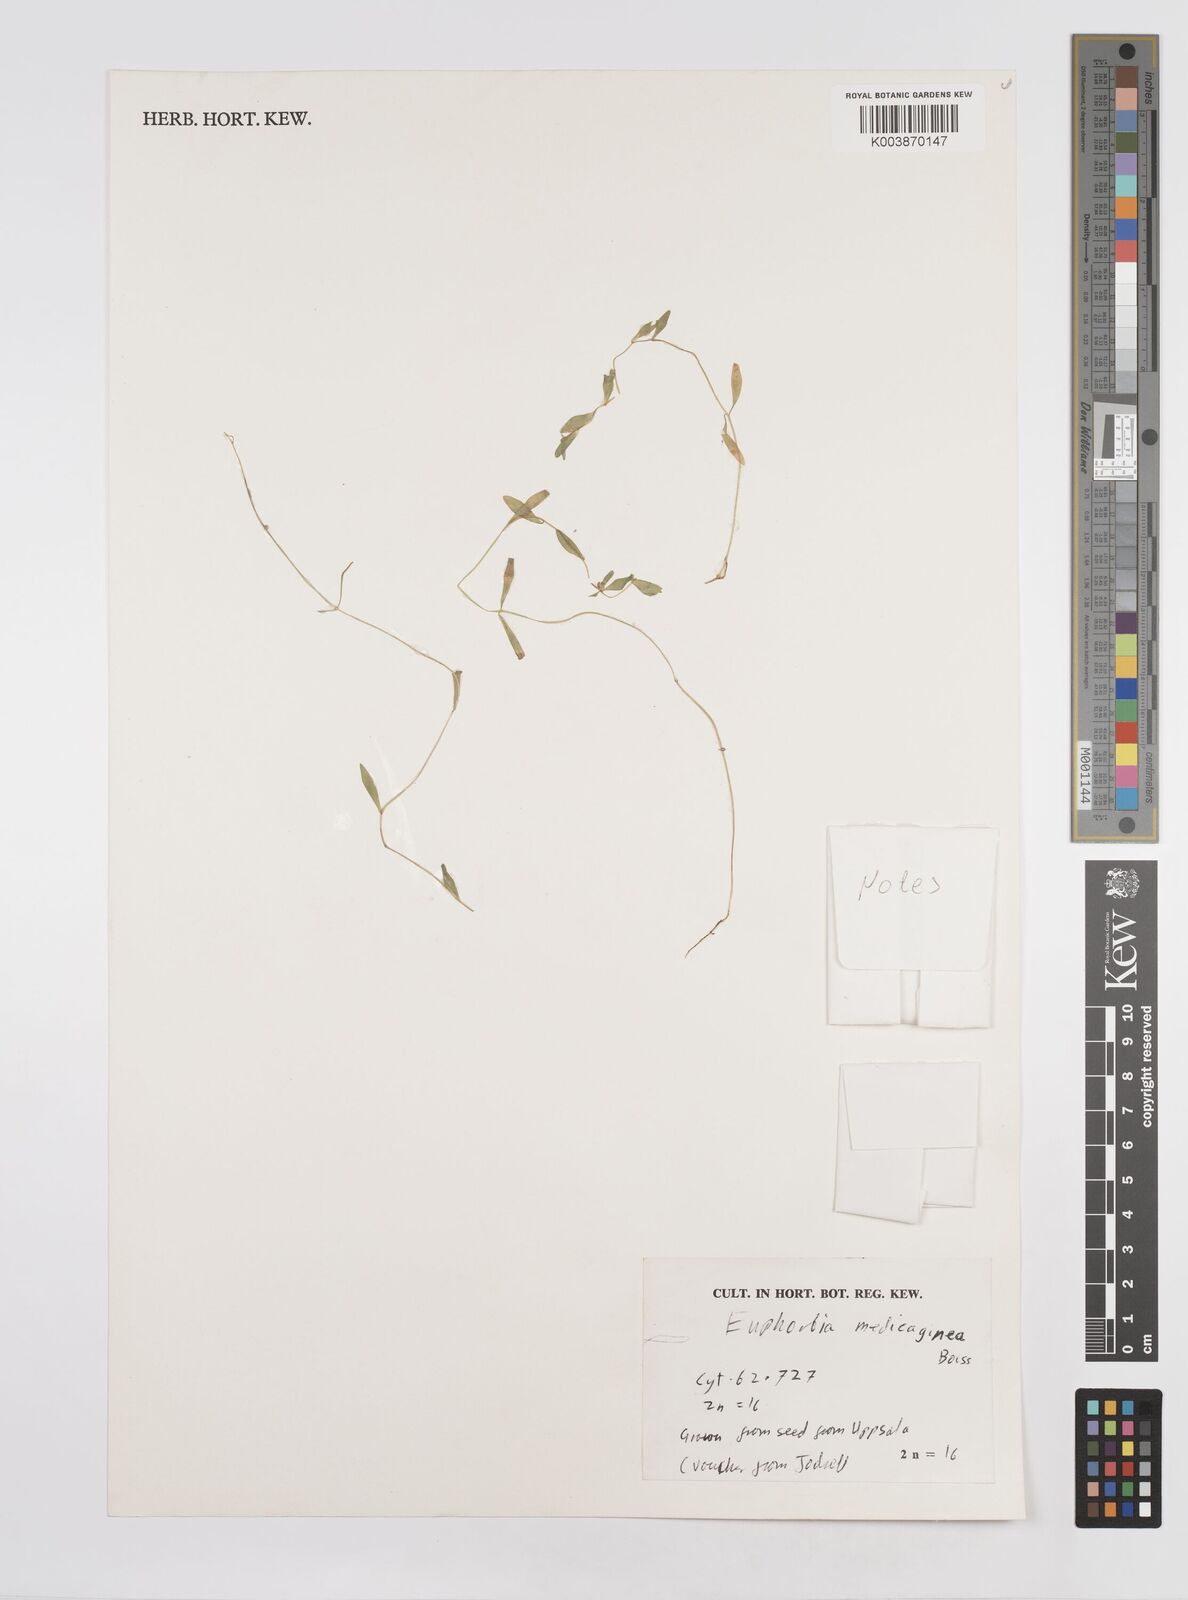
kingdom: Plantae
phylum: Tracheophyta
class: Magnoliopsida
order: Malpighiales
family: Euphorbiaceae
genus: Euphorbia
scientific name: Euphorbia medicaginea
